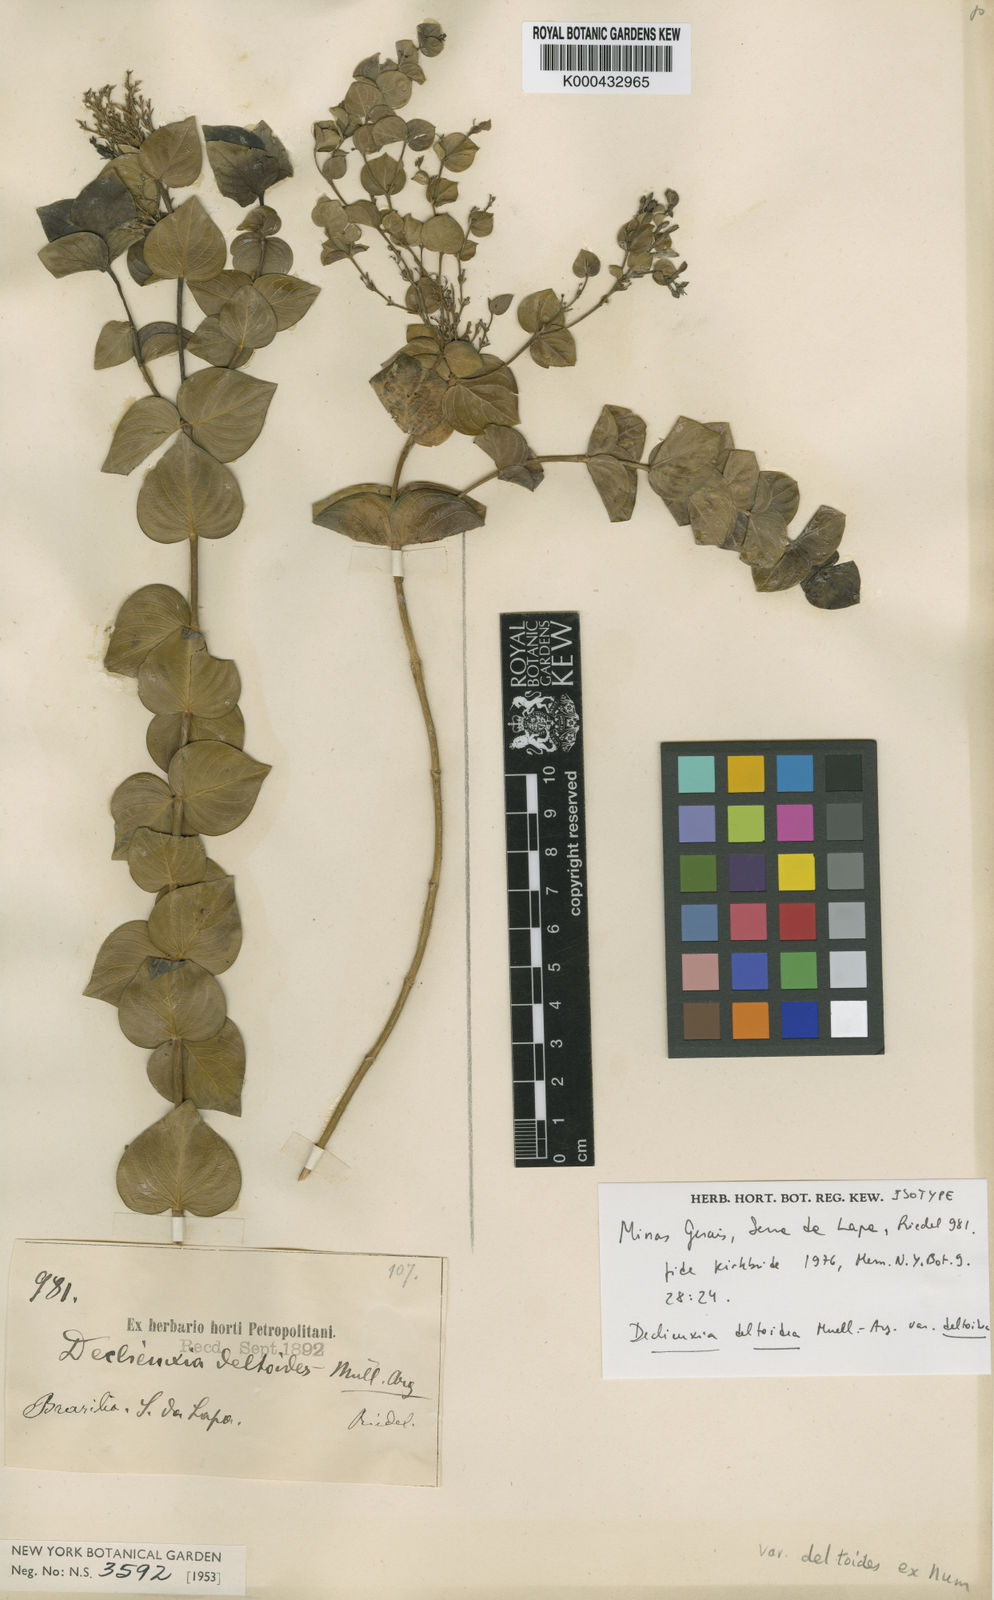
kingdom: Plantae
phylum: Tracheophyta
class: Magnoliopsida
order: Gentianales
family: Rubiaceae
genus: Declieuxia
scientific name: Declieuxia
